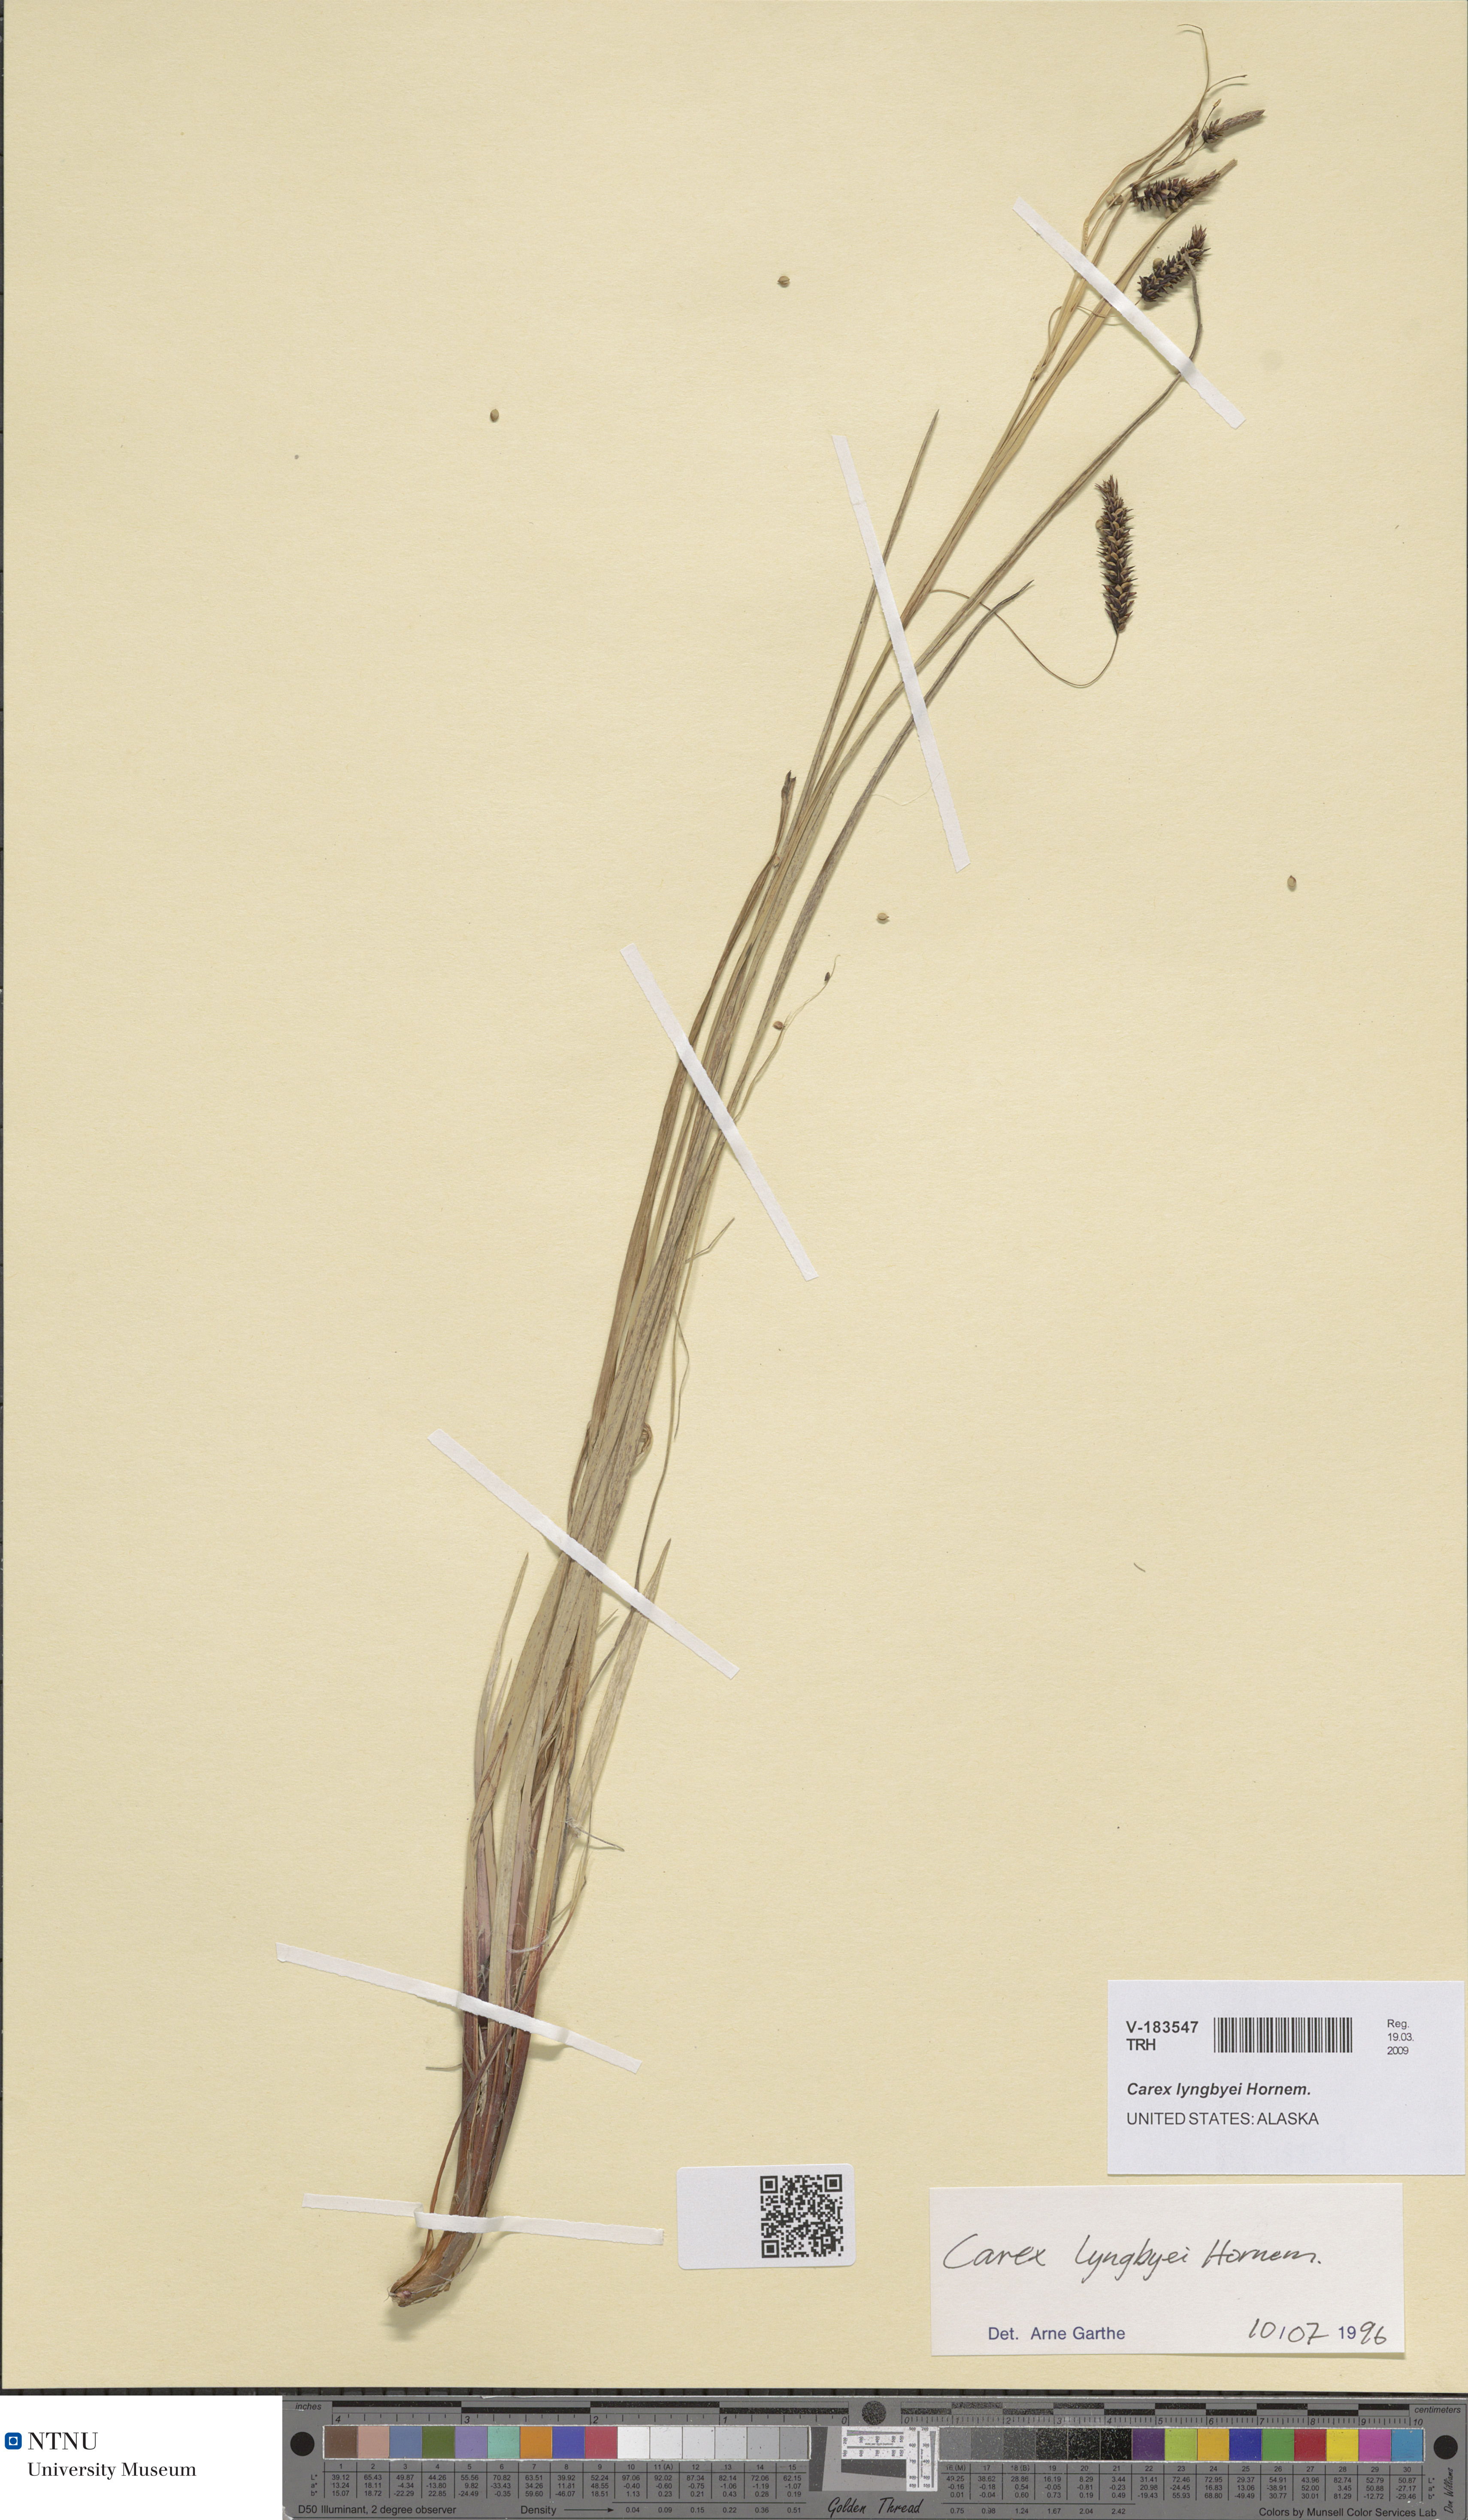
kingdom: Plantae
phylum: Tracheophyta
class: Liliopsida
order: Poales
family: Cyperaceae
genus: Carex
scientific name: Carex lyngbyei
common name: Lyngbye's sedge
